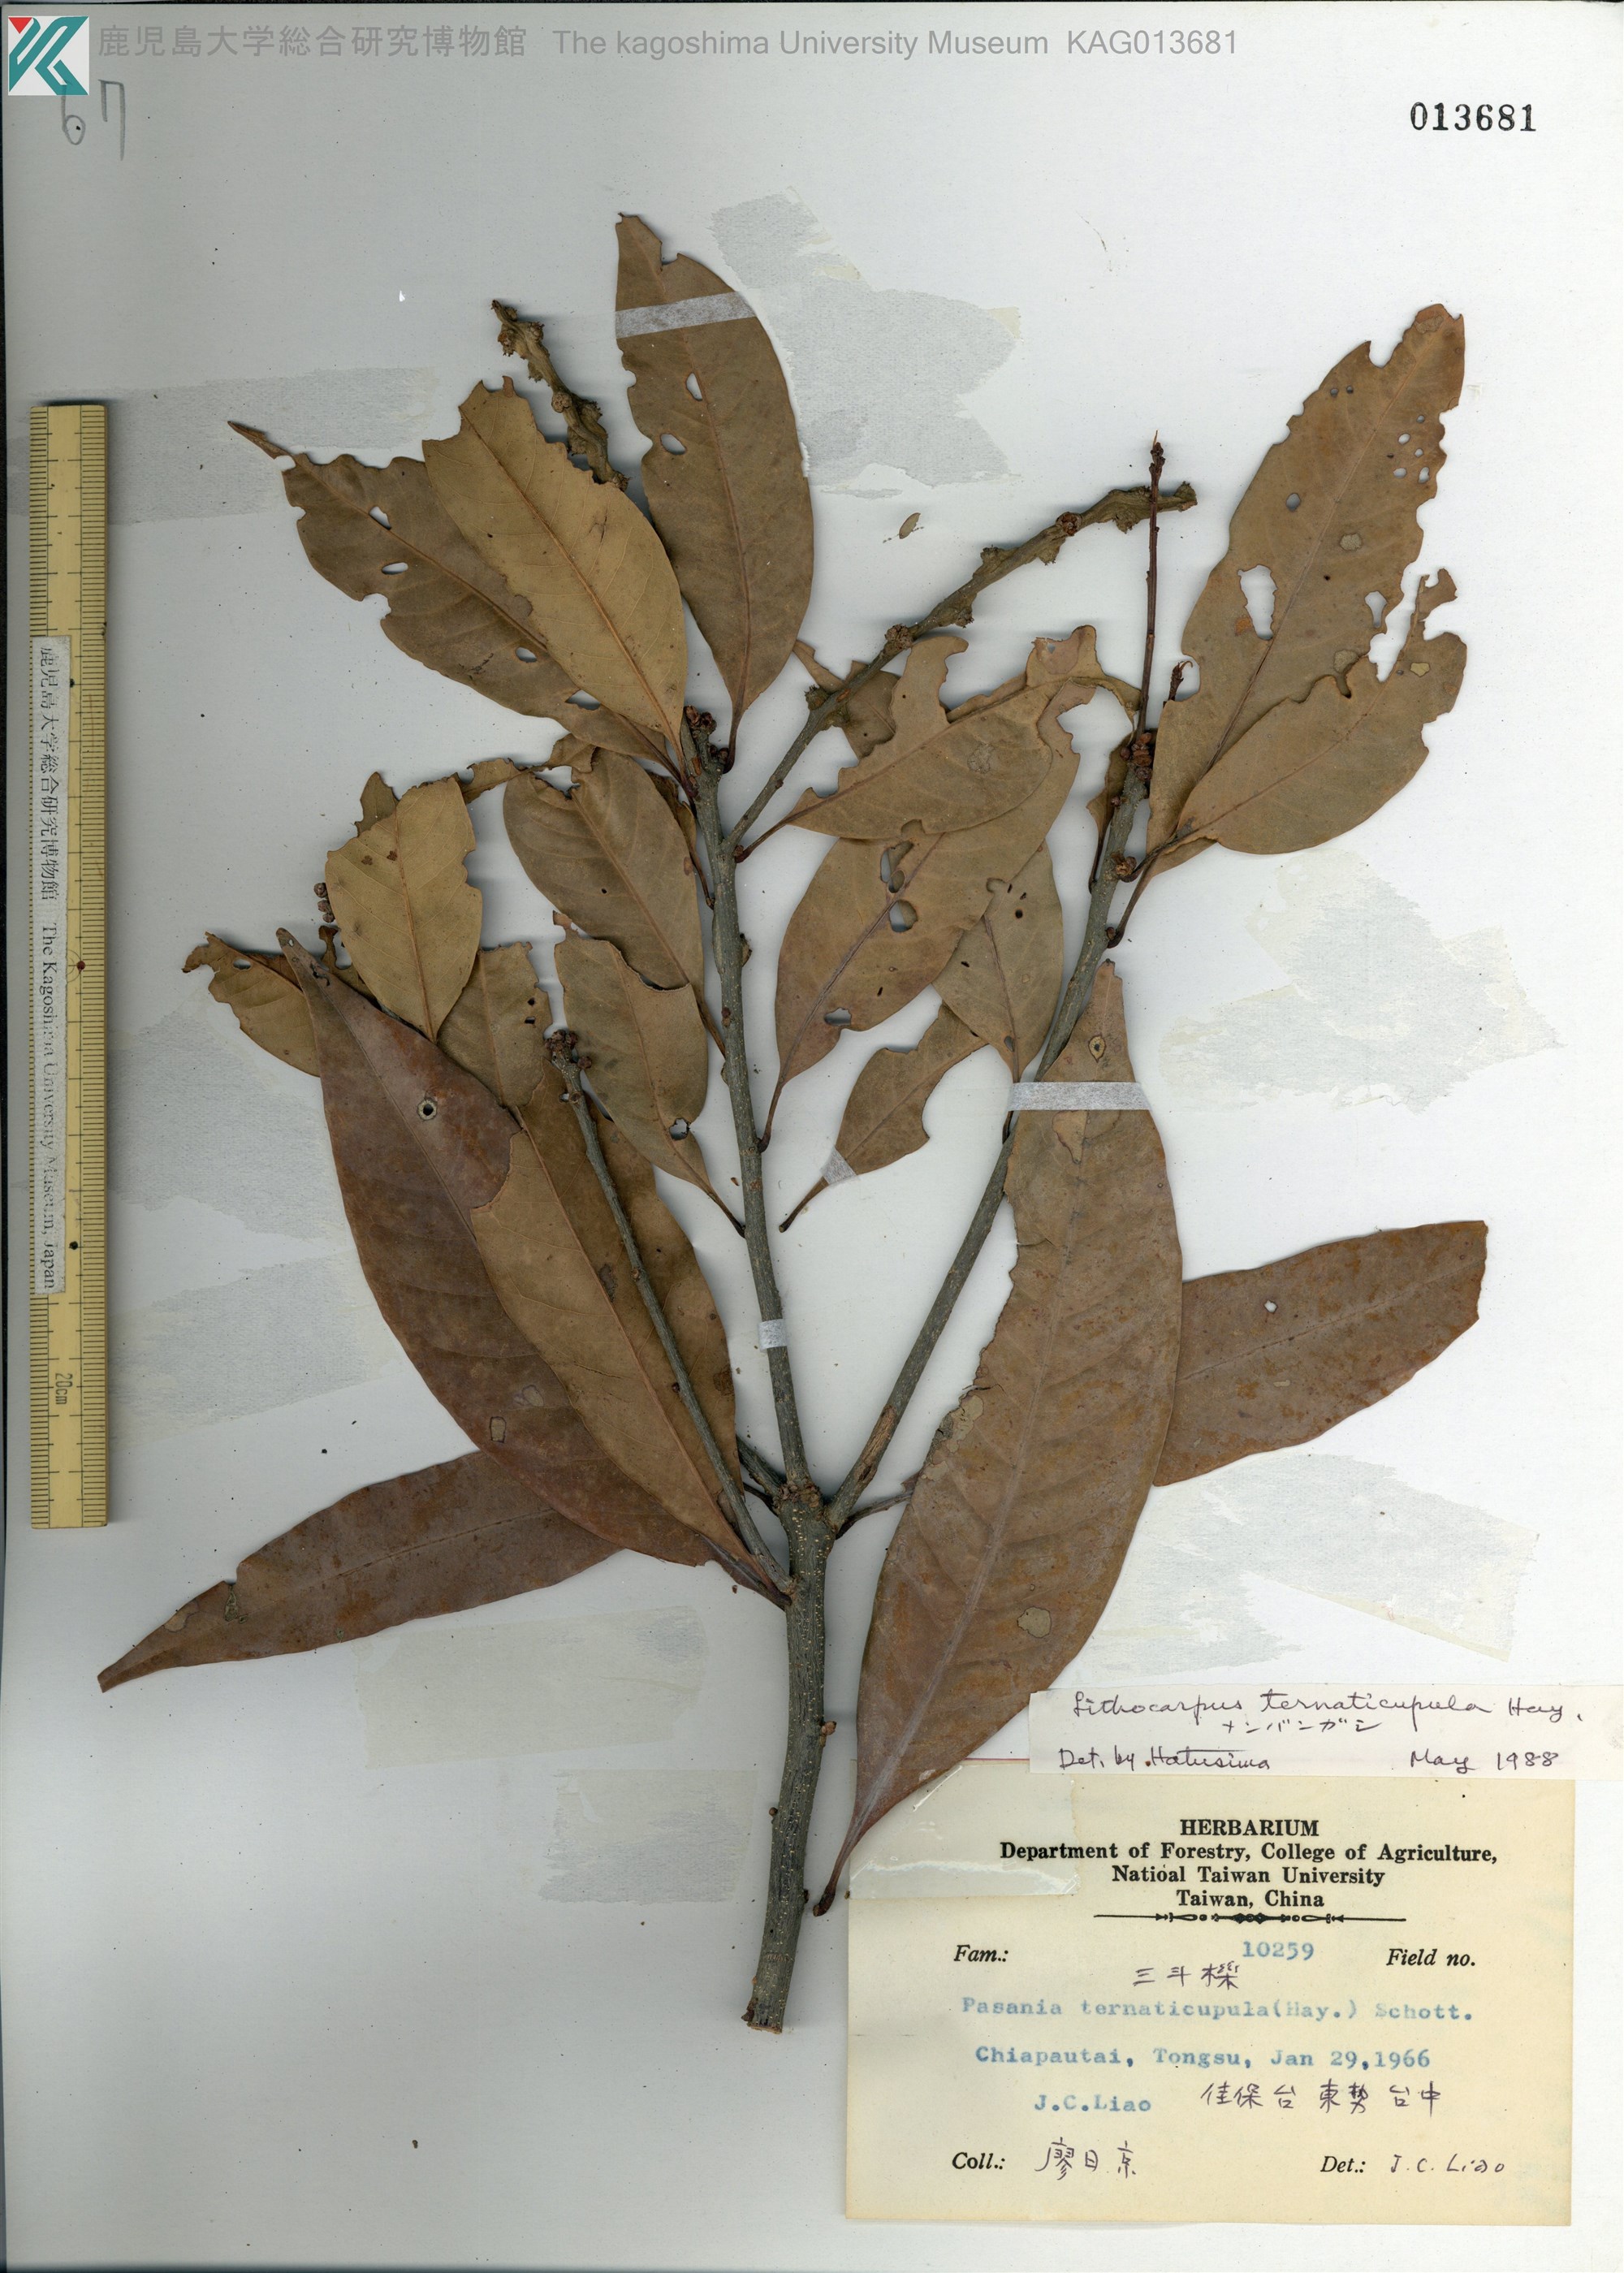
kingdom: Plantae
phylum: Tracheophyta
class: Magnoliopsida
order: Fagales
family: Fagaceae
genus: Lithocarpus
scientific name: Lithocarpus hancei
